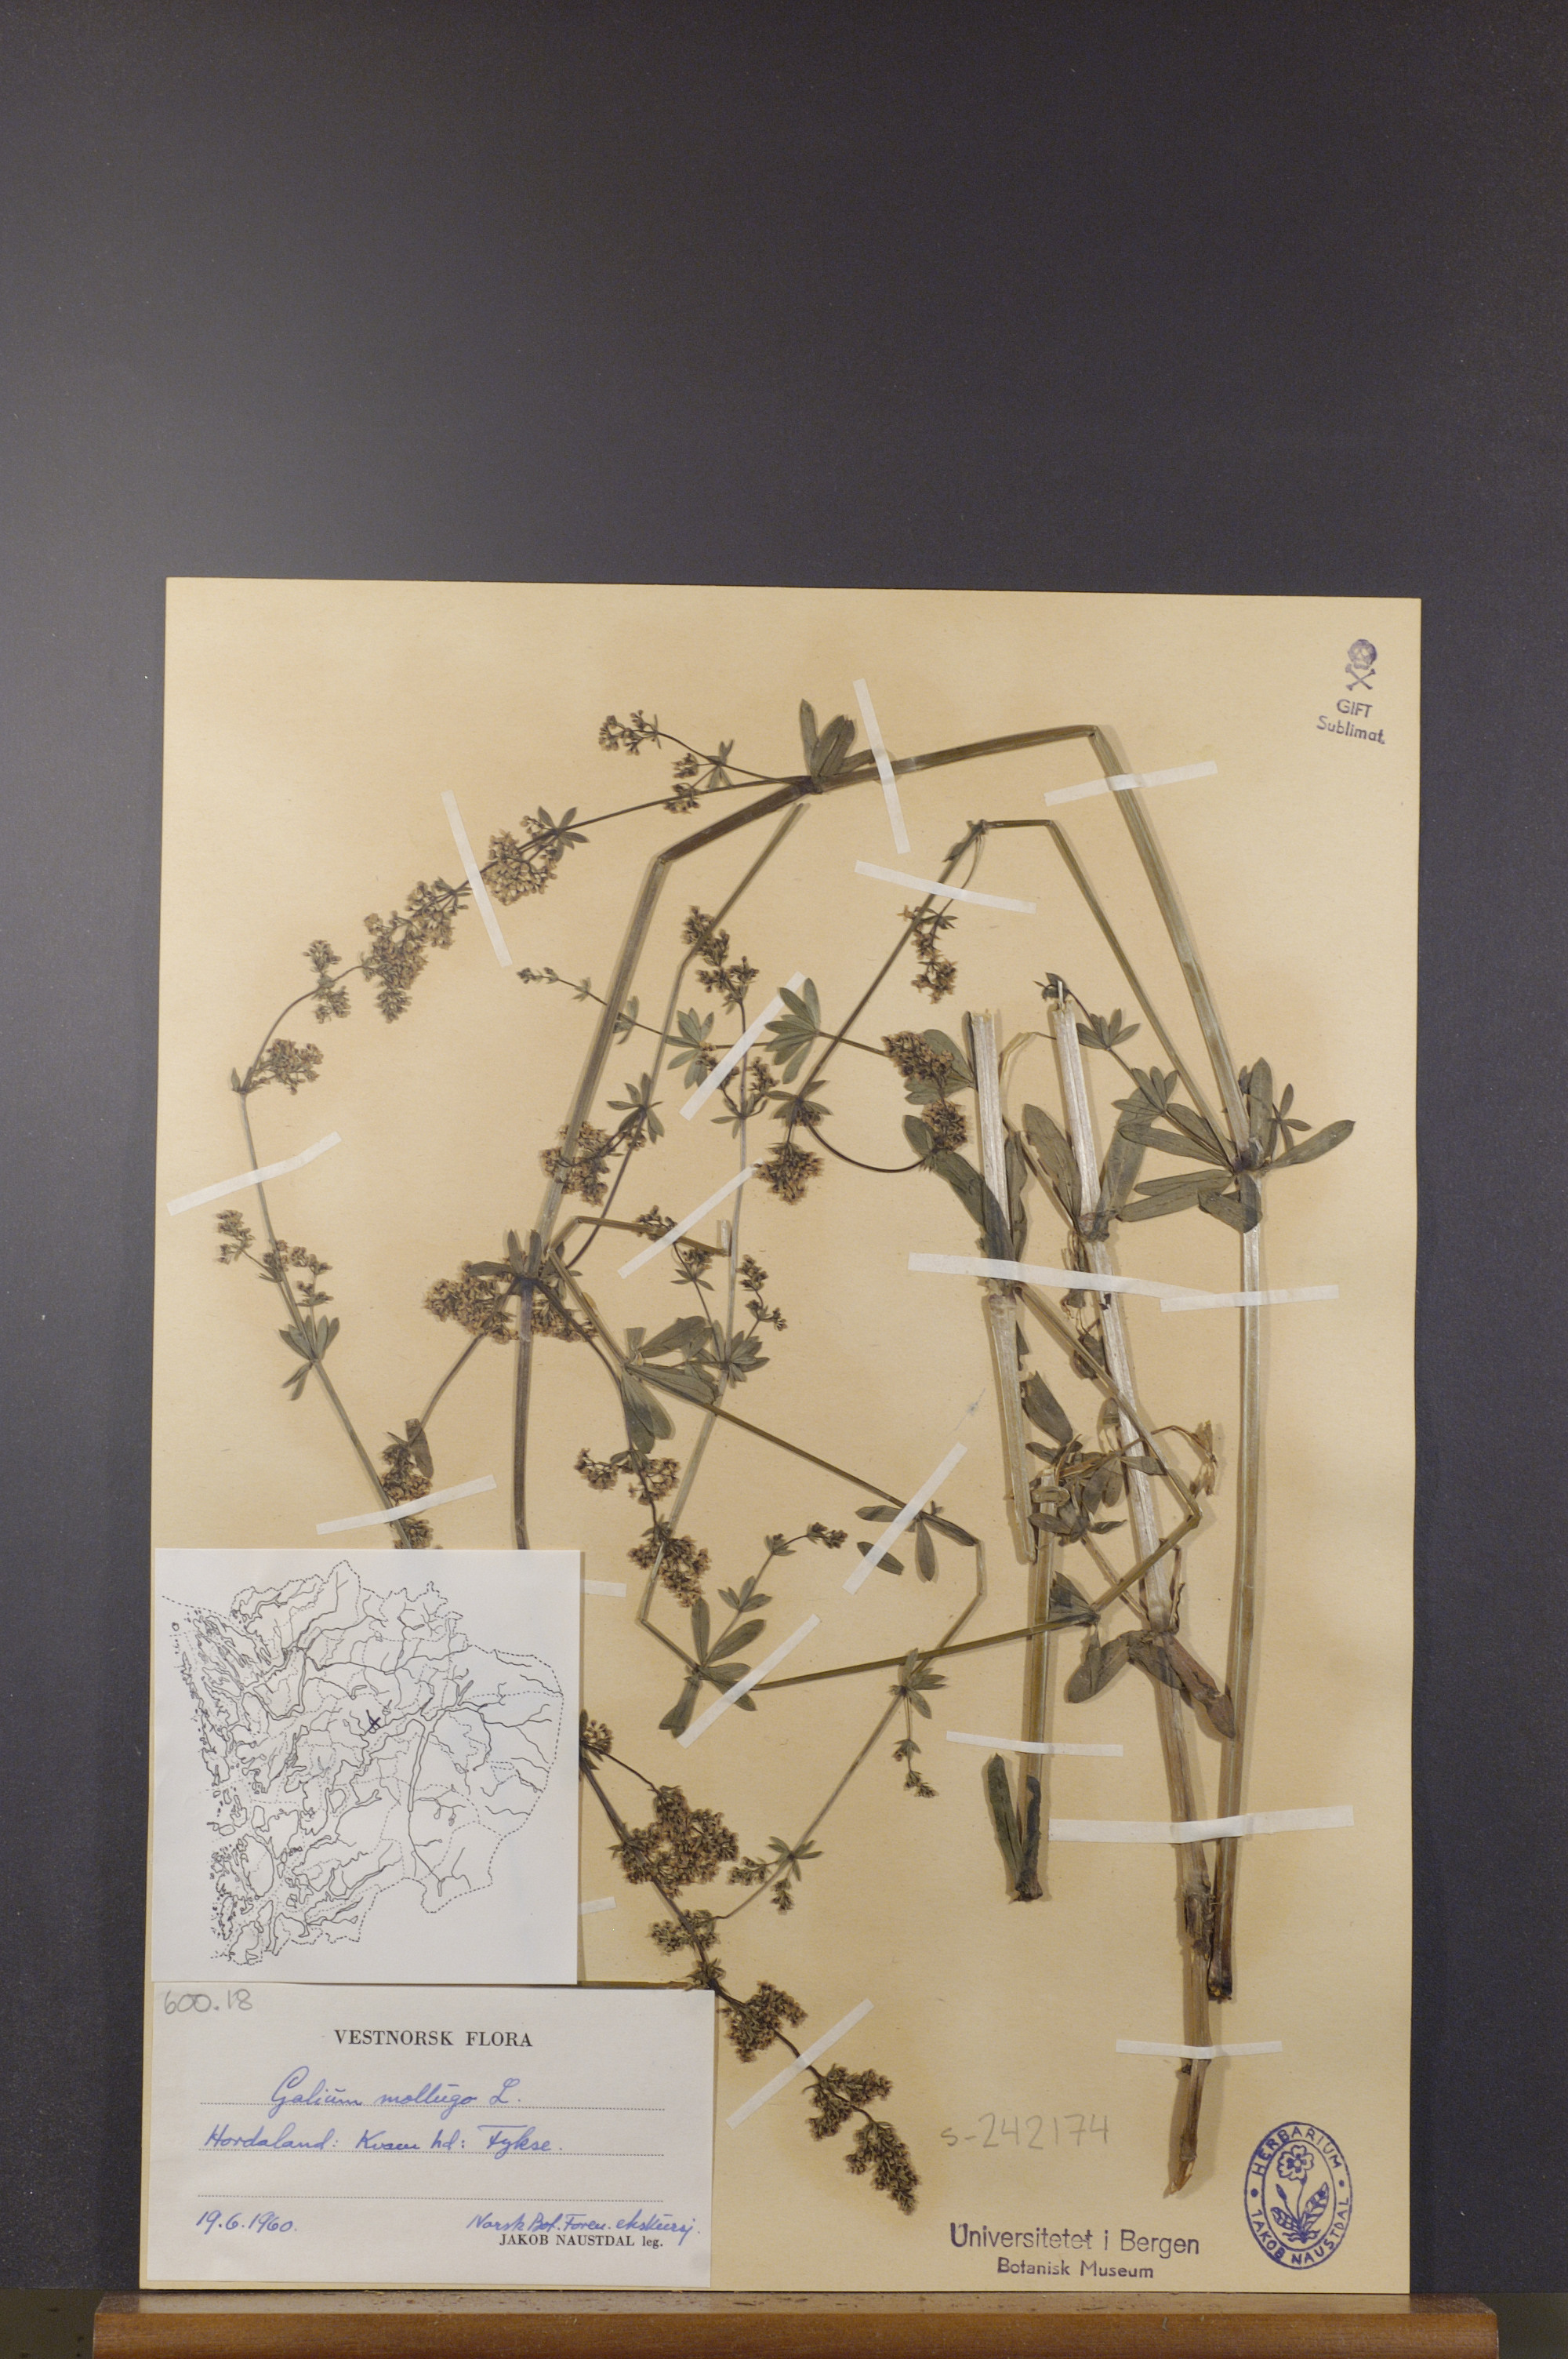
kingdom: Plantae
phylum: Tracheophyta
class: Magnoliopsida
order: Gentianales
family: Rubiaceae
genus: Galium
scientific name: Galium mollugo
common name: Hedge bedstraw
